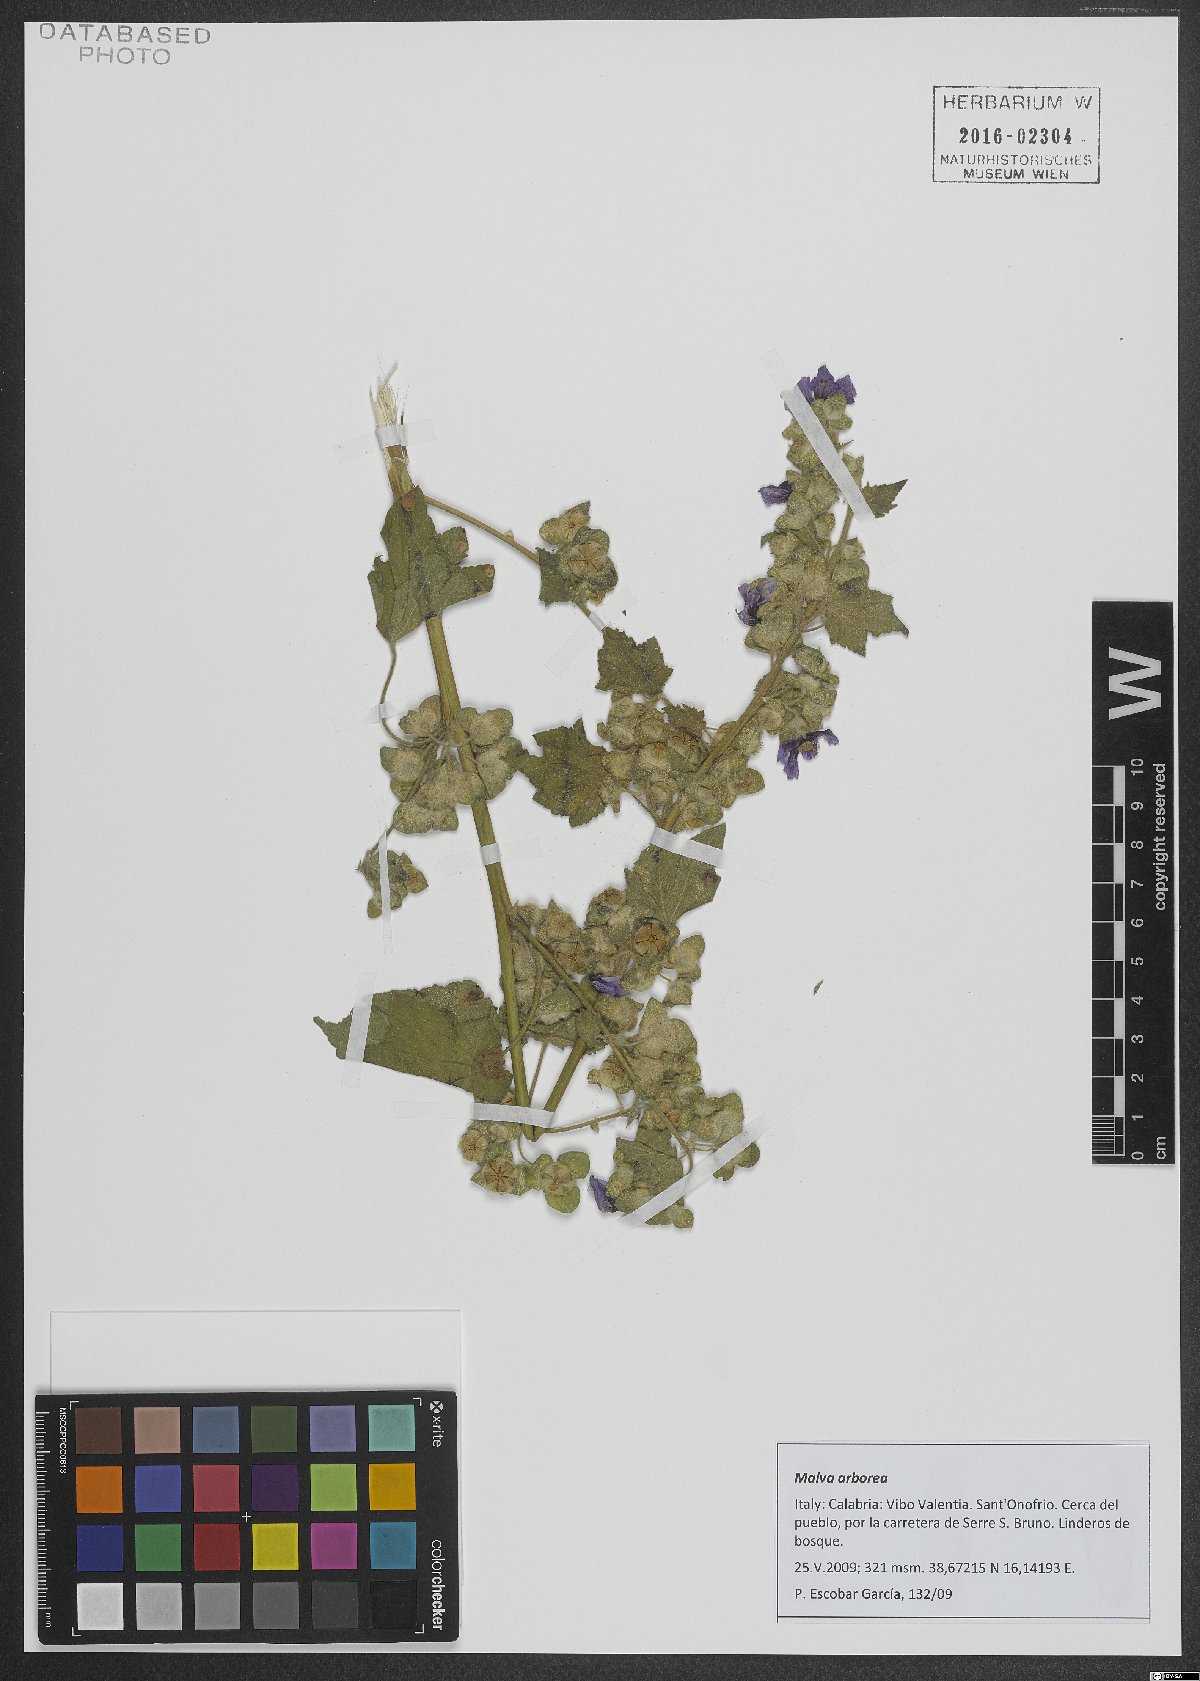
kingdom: Plantae
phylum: Tracheophyta
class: Magnoliopsida
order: Malvales
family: Malvaceae
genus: Malva
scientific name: Malva arborea
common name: Tree mallow
